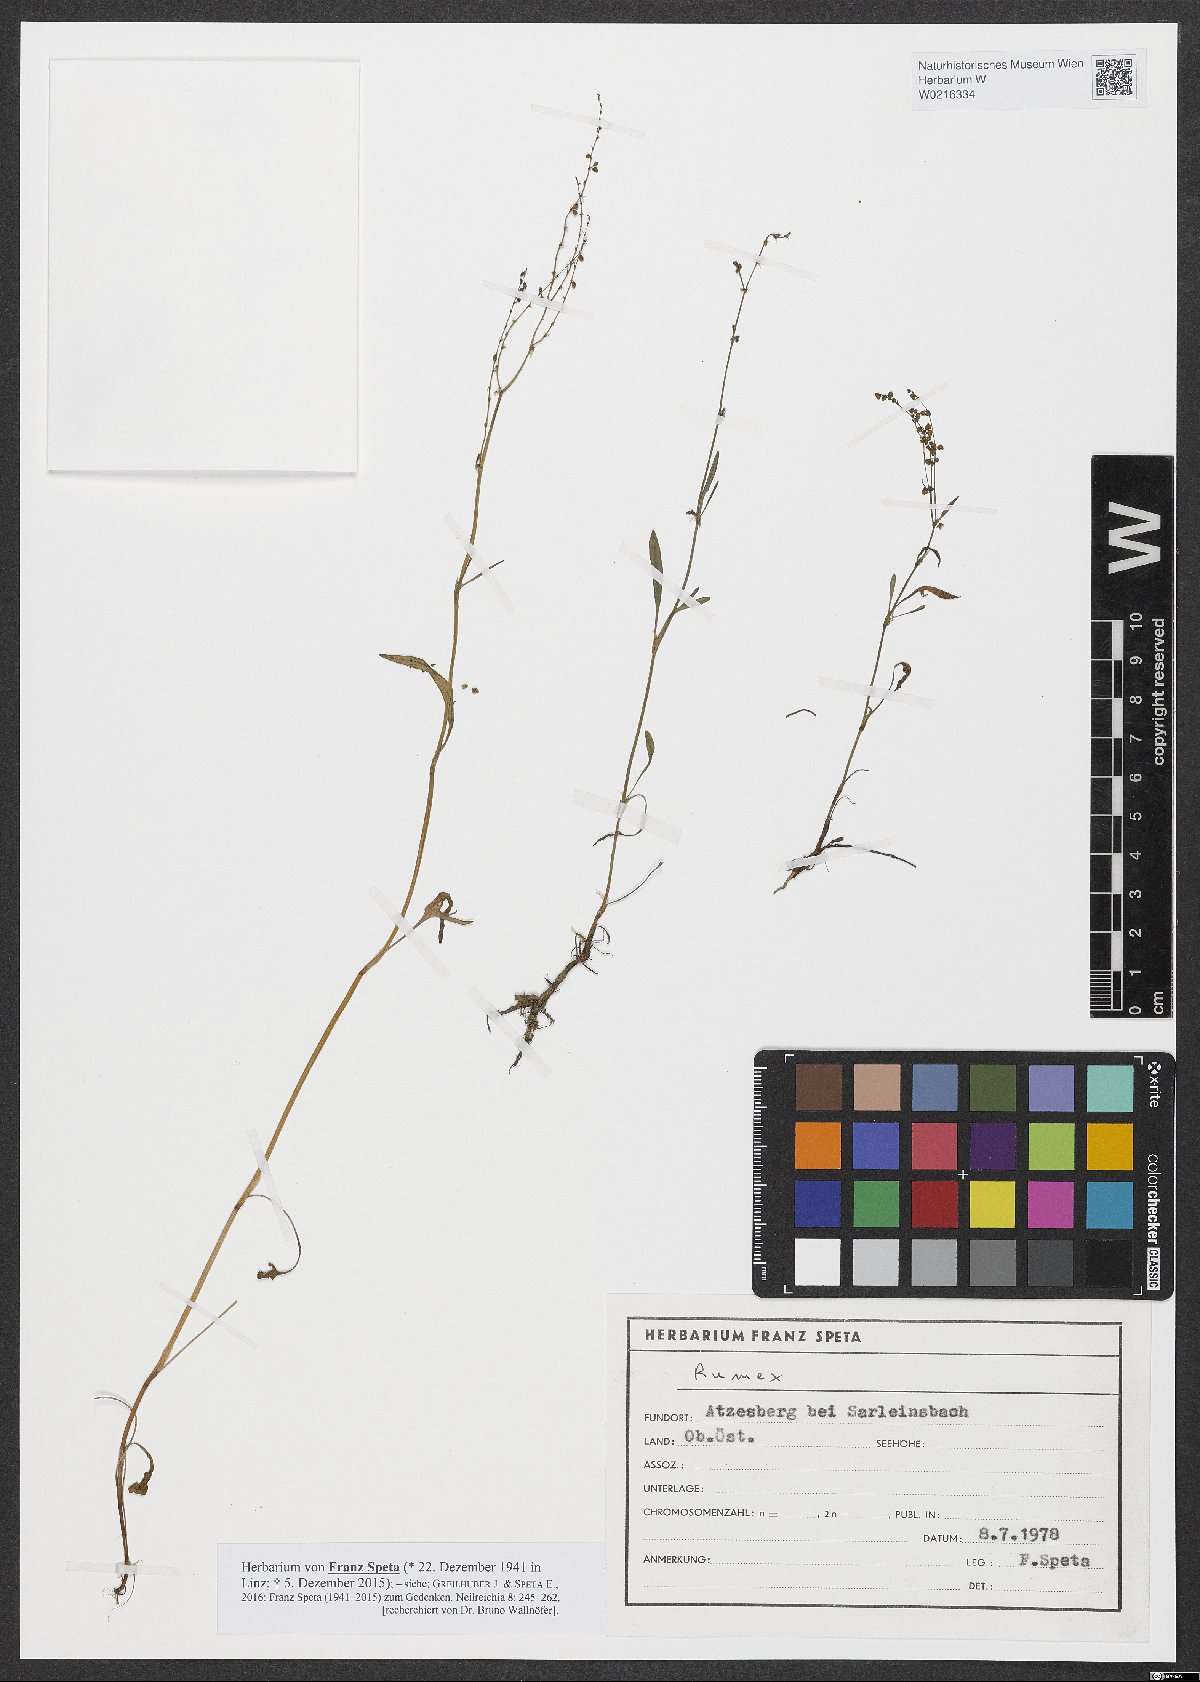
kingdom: Plantae
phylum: Tracheophyta
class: Magnoliopsida
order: Caryophyllales
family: Polygonaceae
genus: Rumex
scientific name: Rumex
